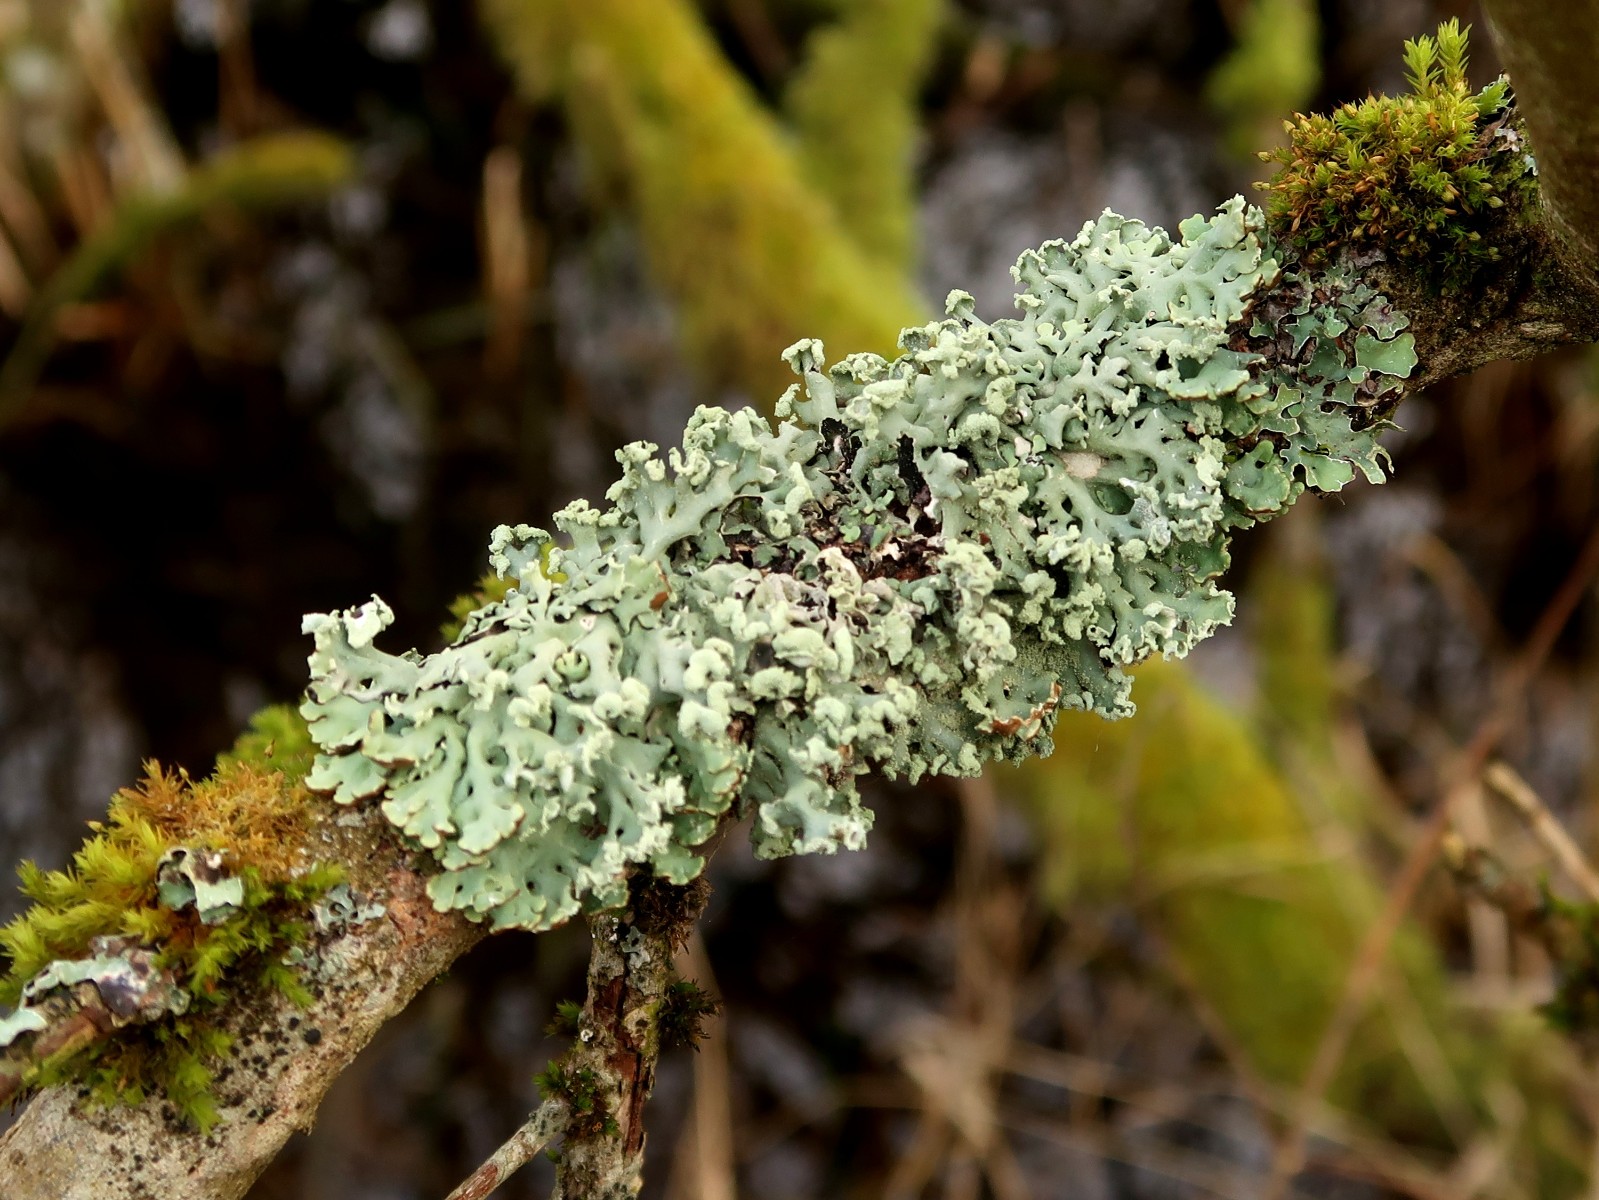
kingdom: Fungi
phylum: Ascomycota
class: Lecanoromycetes
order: Lecanorales
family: Parmeliaceae
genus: Hypogymnia
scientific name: Hypogymnia physodes
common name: almindelig kvistlav
